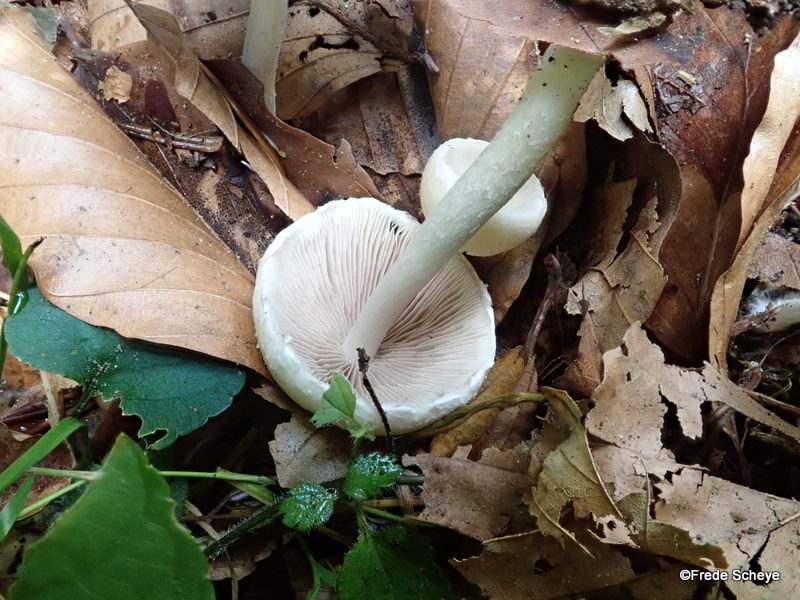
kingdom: Fungi
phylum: Basidiomycota
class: Agaricomycetes
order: Agaricales
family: Psathyrellaceae
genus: Candolleomyces
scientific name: Candolleomyces candolleanus
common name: Candolles mørkhat
